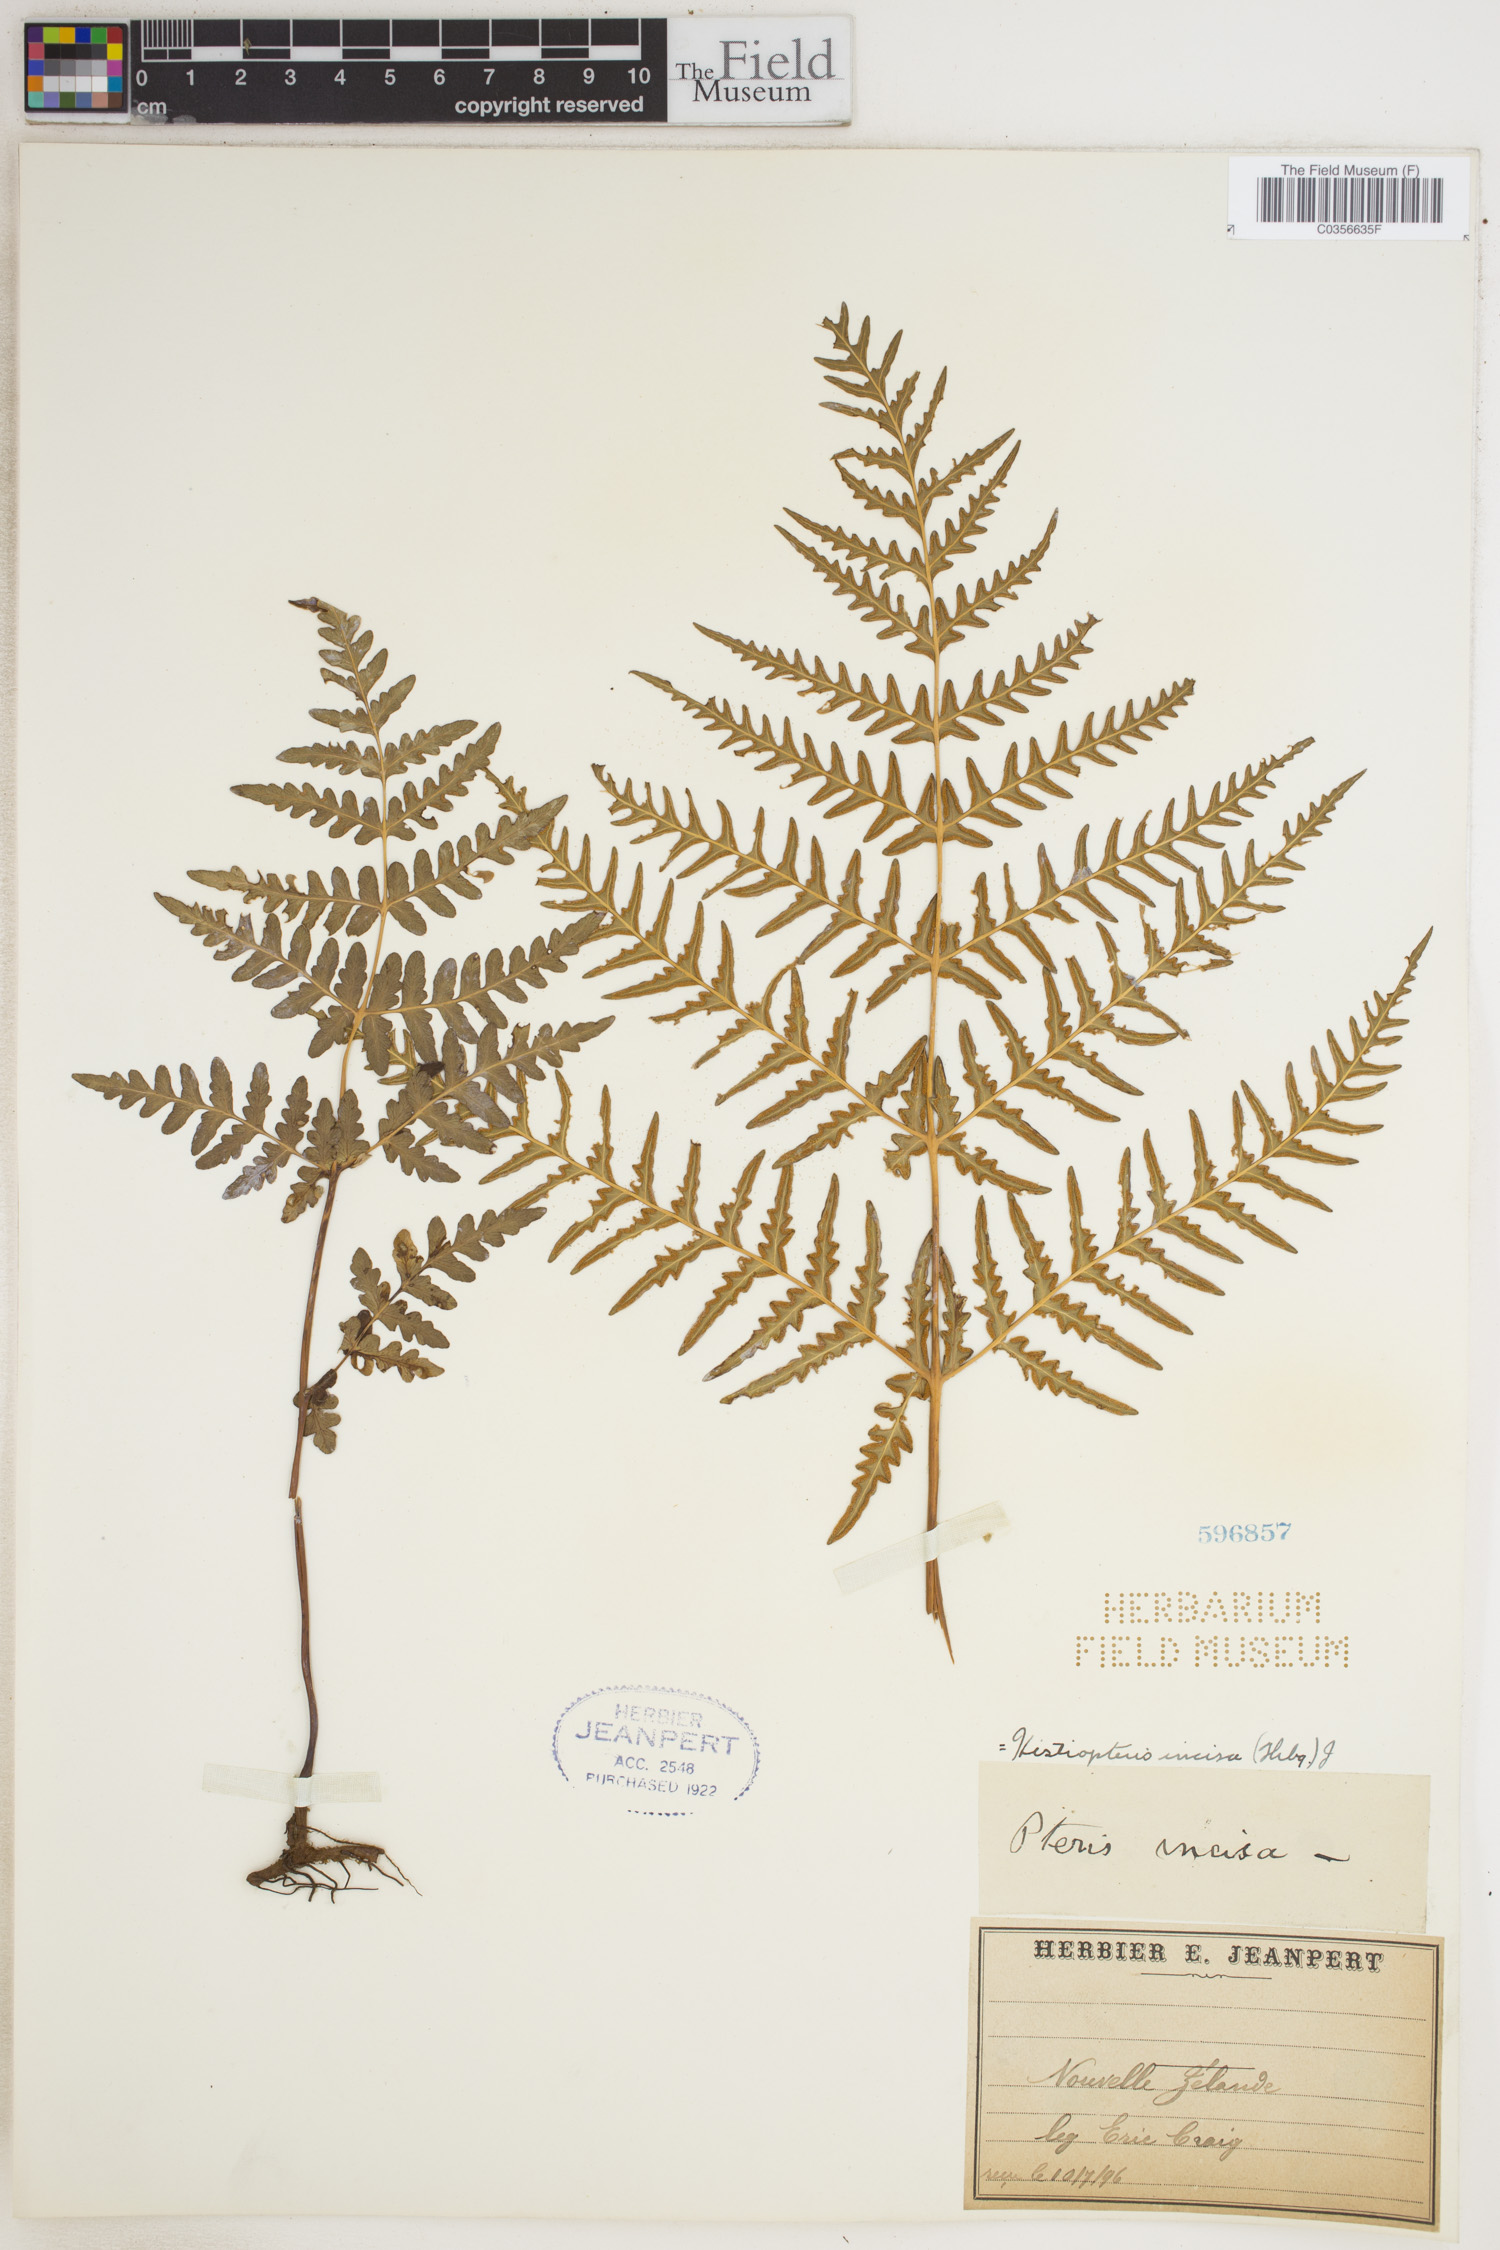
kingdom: Plantae
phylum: Tracheophyta
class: Polypodiopsida
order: Polypodiales
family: Dennstaedtiaceae
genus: Histiopteris
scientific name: Histiopteris incisa
